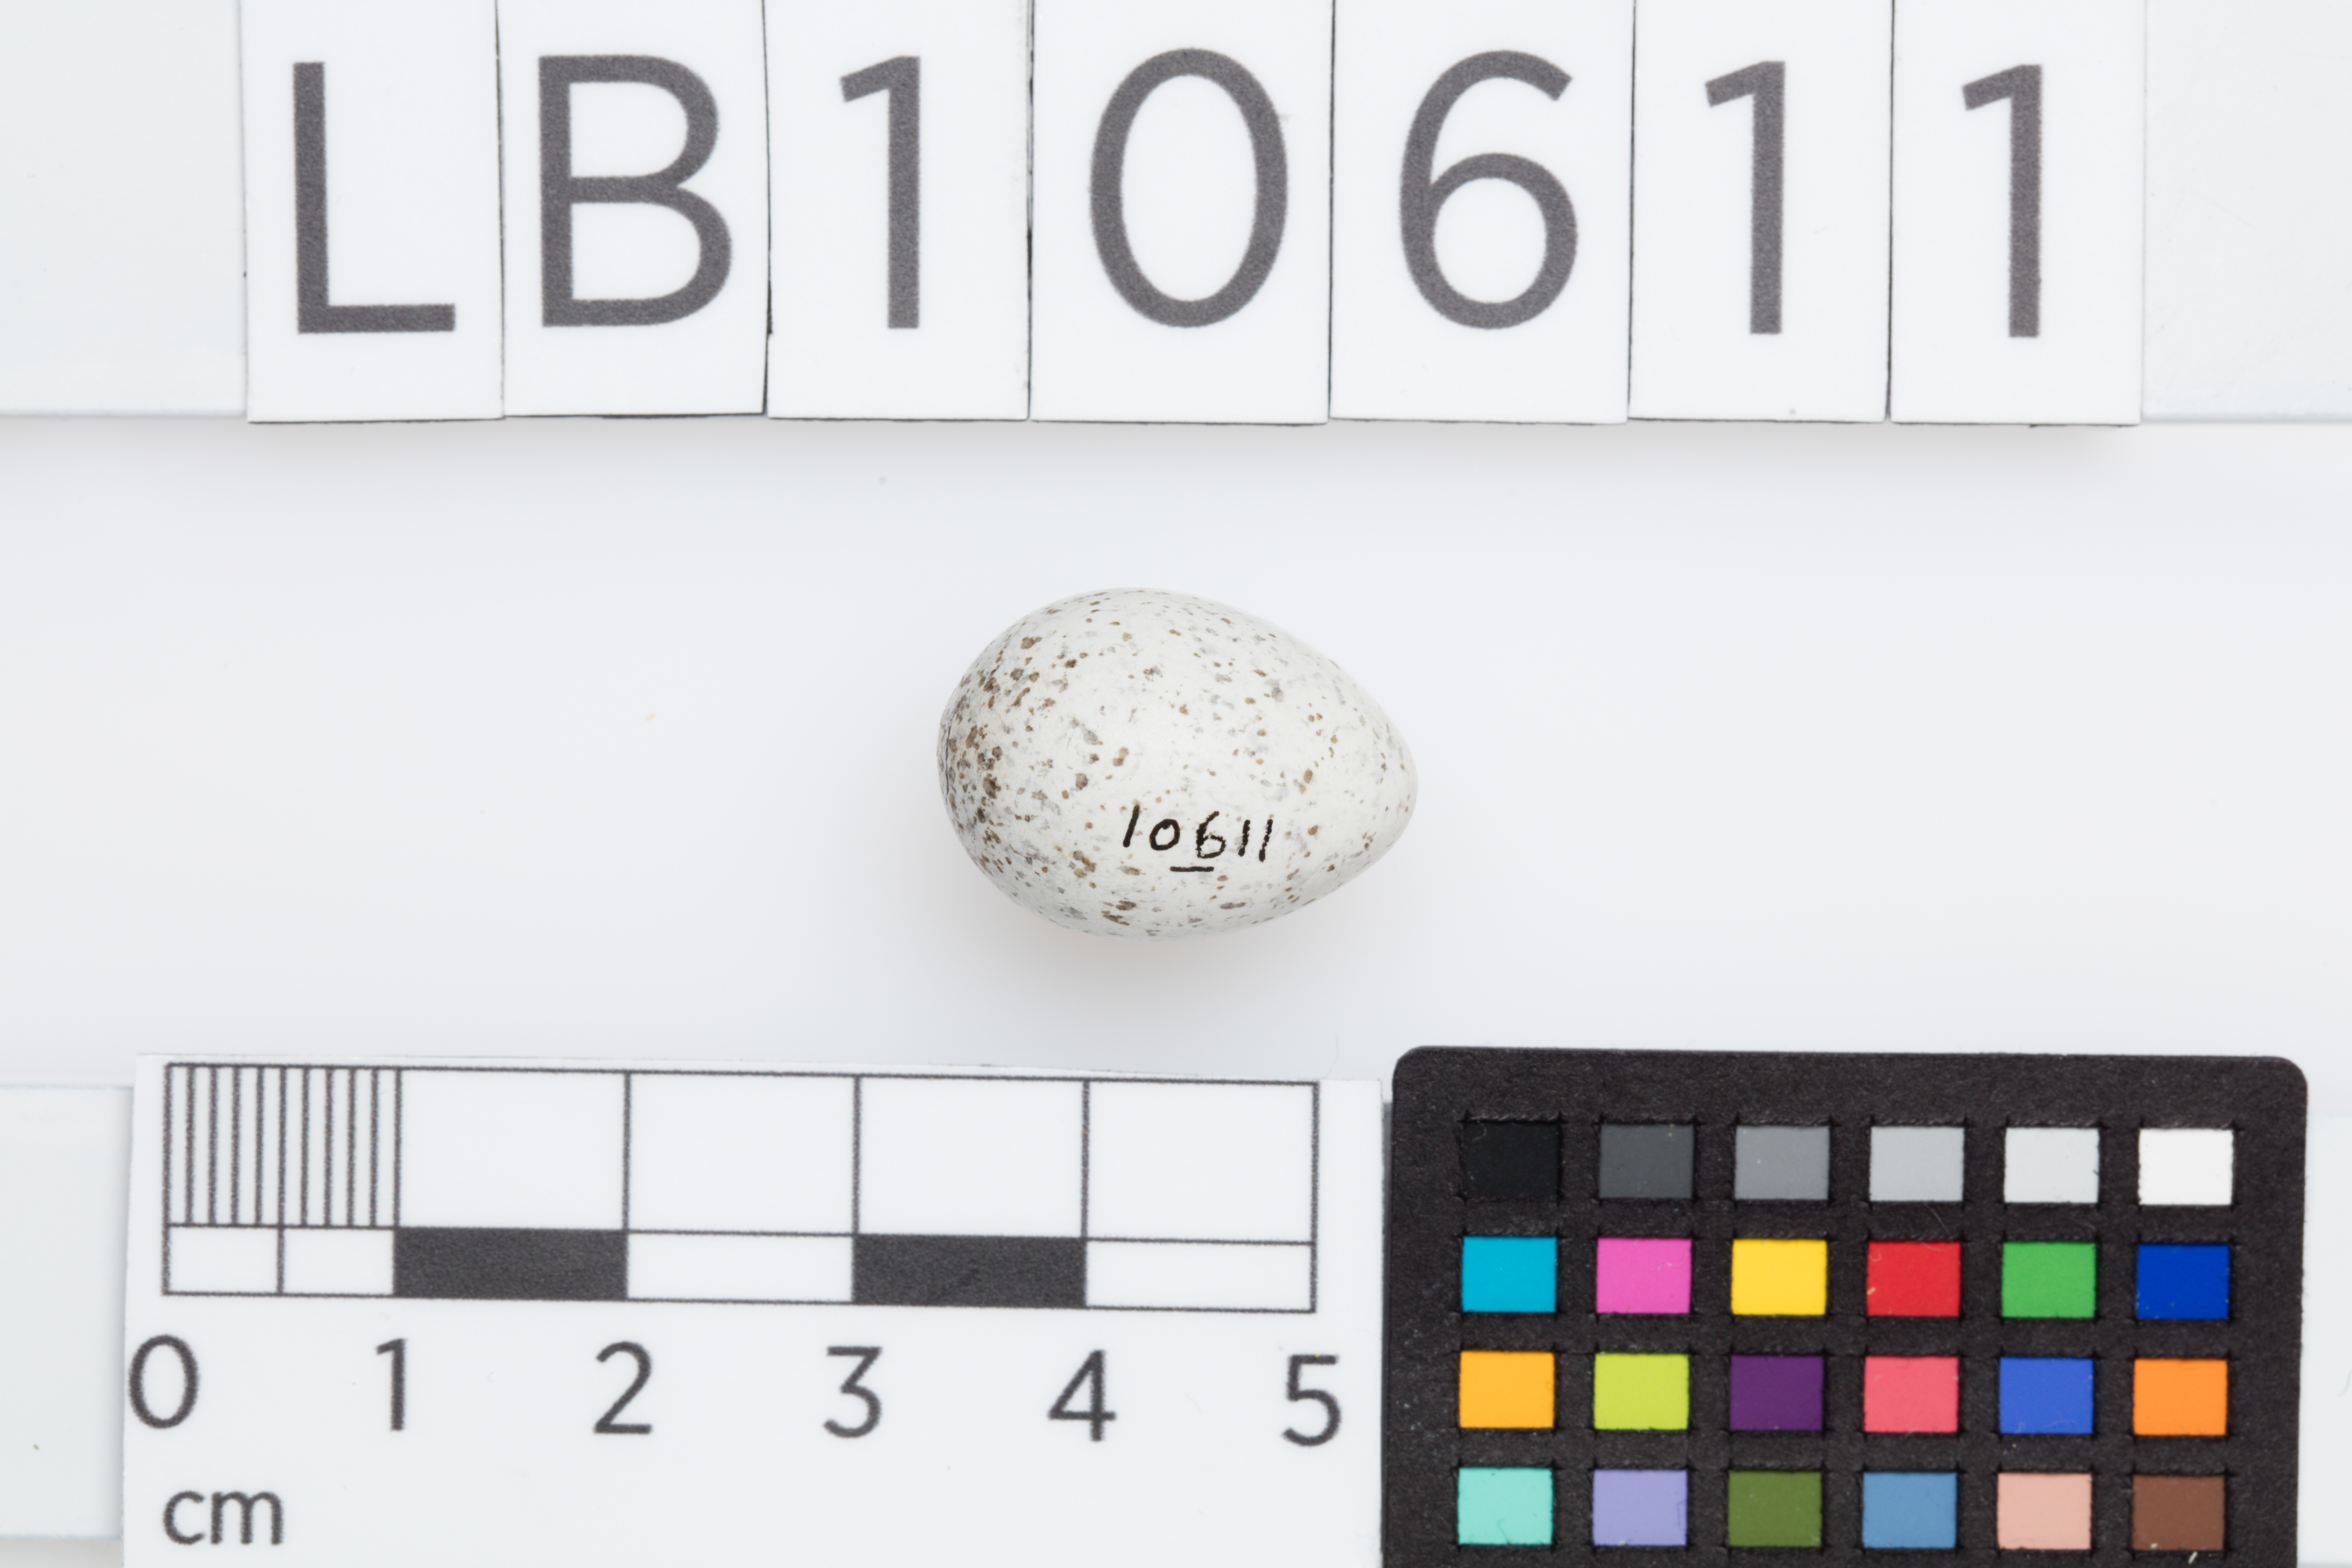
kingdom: Animalia
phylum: Chordata
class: Aves
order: Passeriformes
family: Motacillidae
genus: Motacilla
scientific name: Motacilla alba
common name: White wagtail
